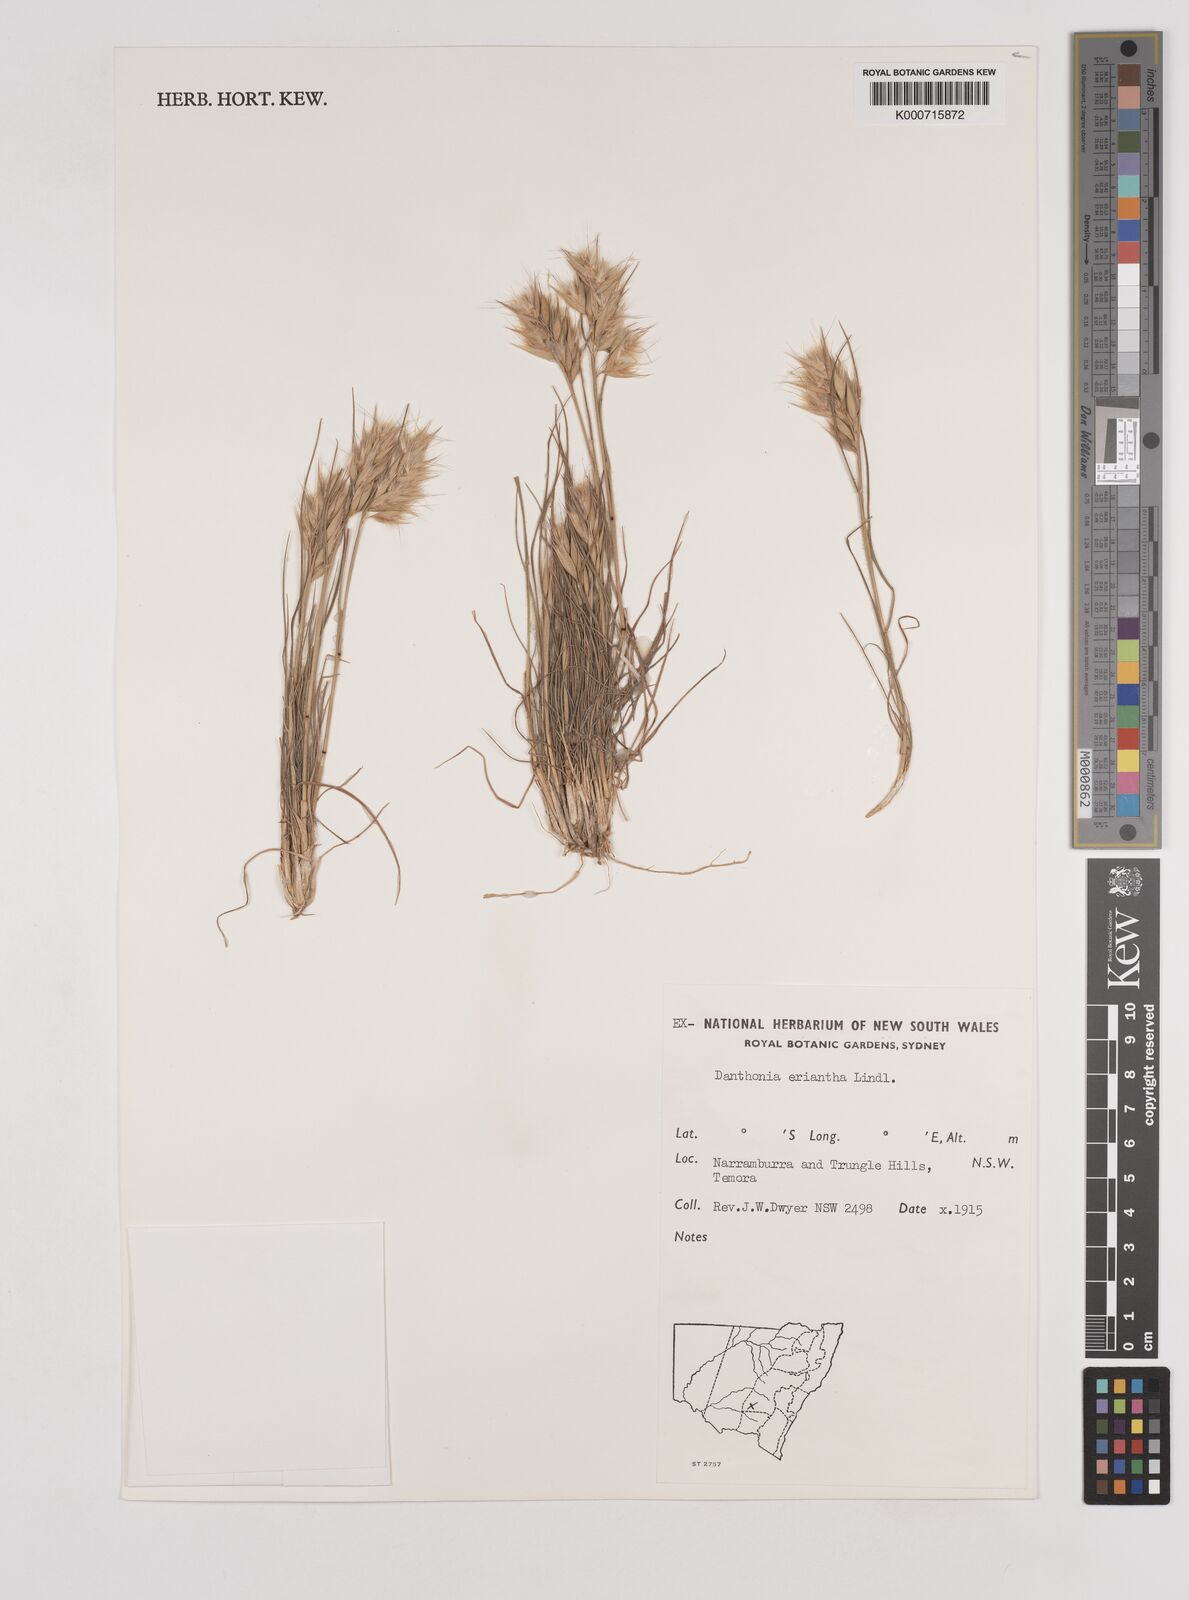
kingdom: Plantae
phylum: Tracheophyta
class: Liliopsida
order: Poales
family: Poaceae
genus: Rytidosperma
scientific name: Rytidosperma erianthum
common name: Hill wallaby grass
